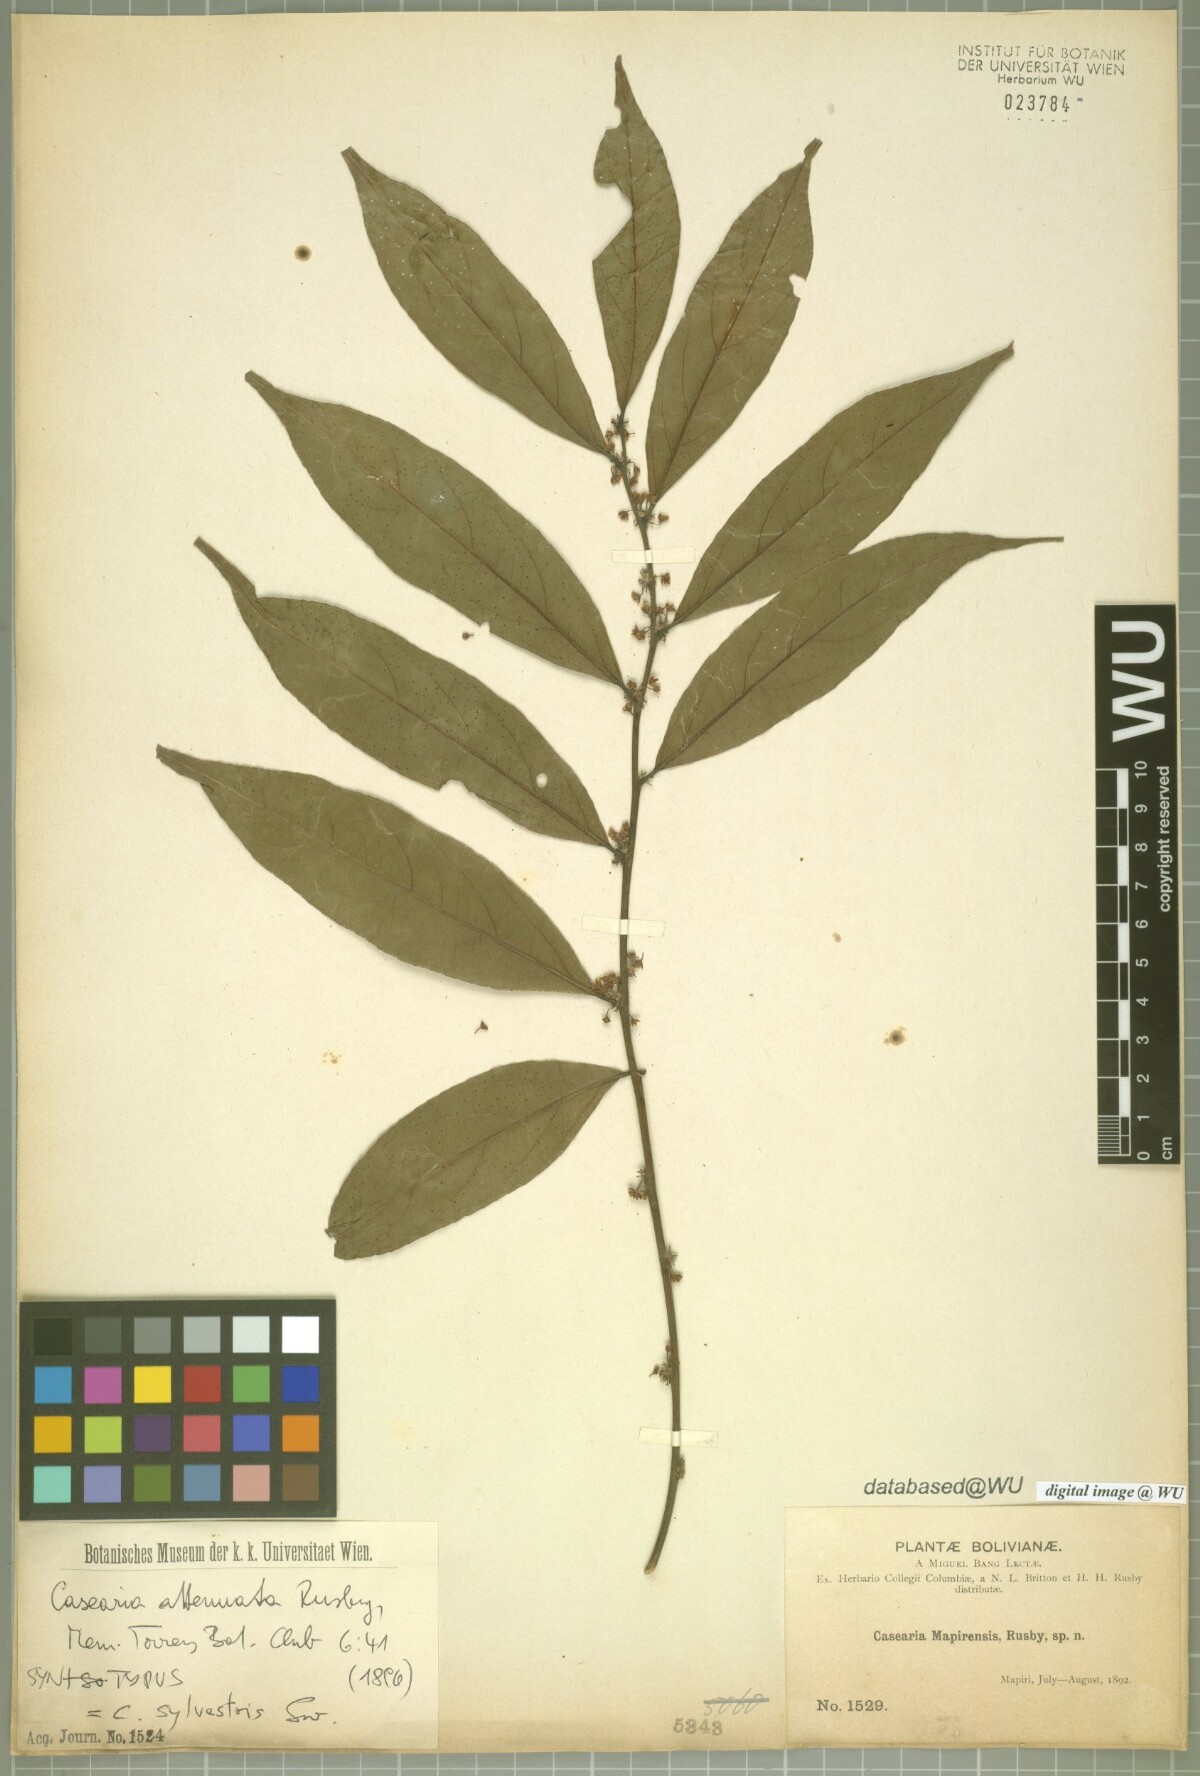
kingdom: Plantae
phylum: Tracheophyta
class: Magnoliopsida
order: Malpighiales
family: Salicaceae
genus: Casearia
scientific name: Casearia sylvestris
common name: Wild sage
